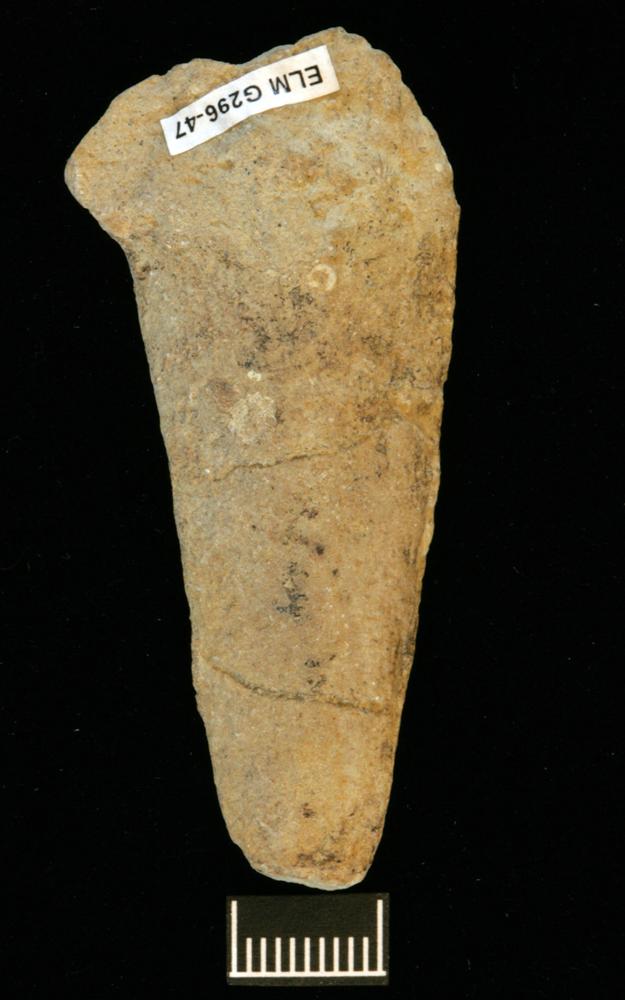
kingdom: Animalia
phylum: Annelida
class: Polychaeta
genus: Hyolithes
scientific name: Hyolithes
